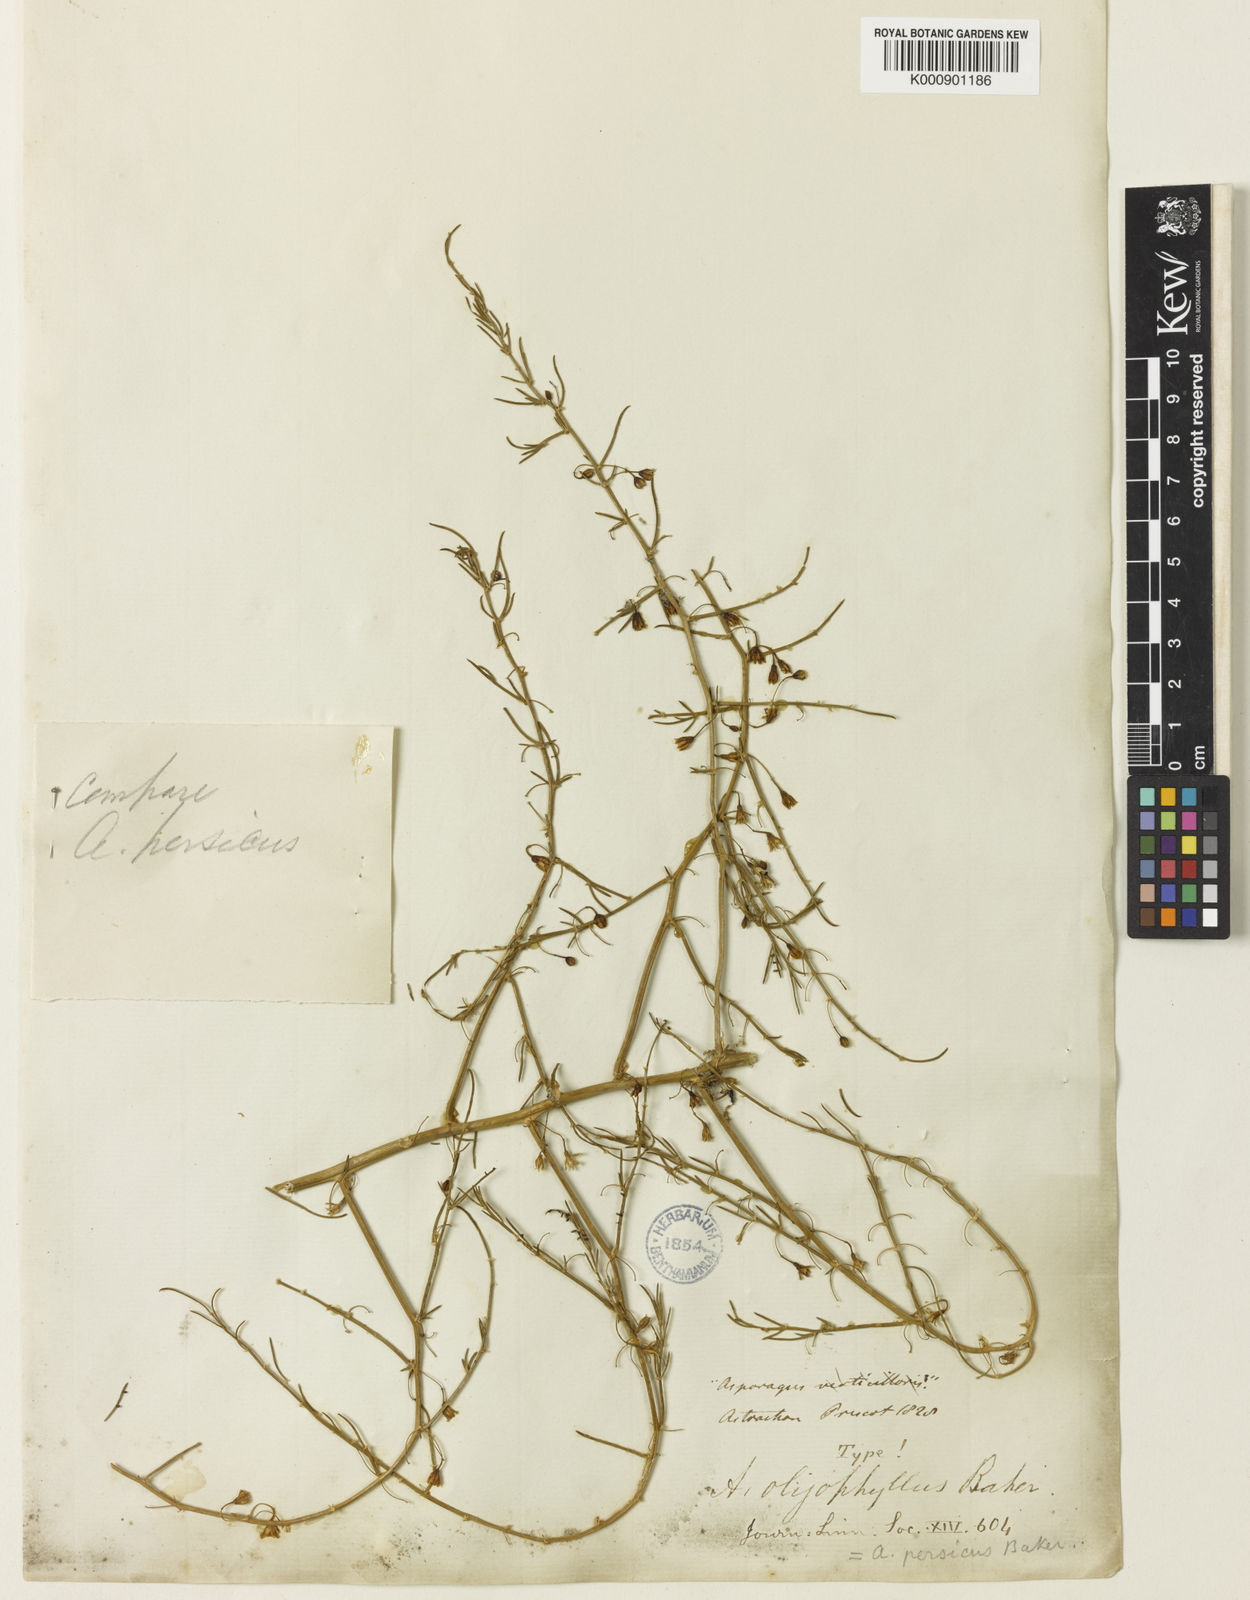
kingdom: Plantae
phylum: Tracheophyta
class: Liliopsida
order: Asparagales
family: Asparagaceae
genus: Asparagus
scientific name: Asparagus persicus
